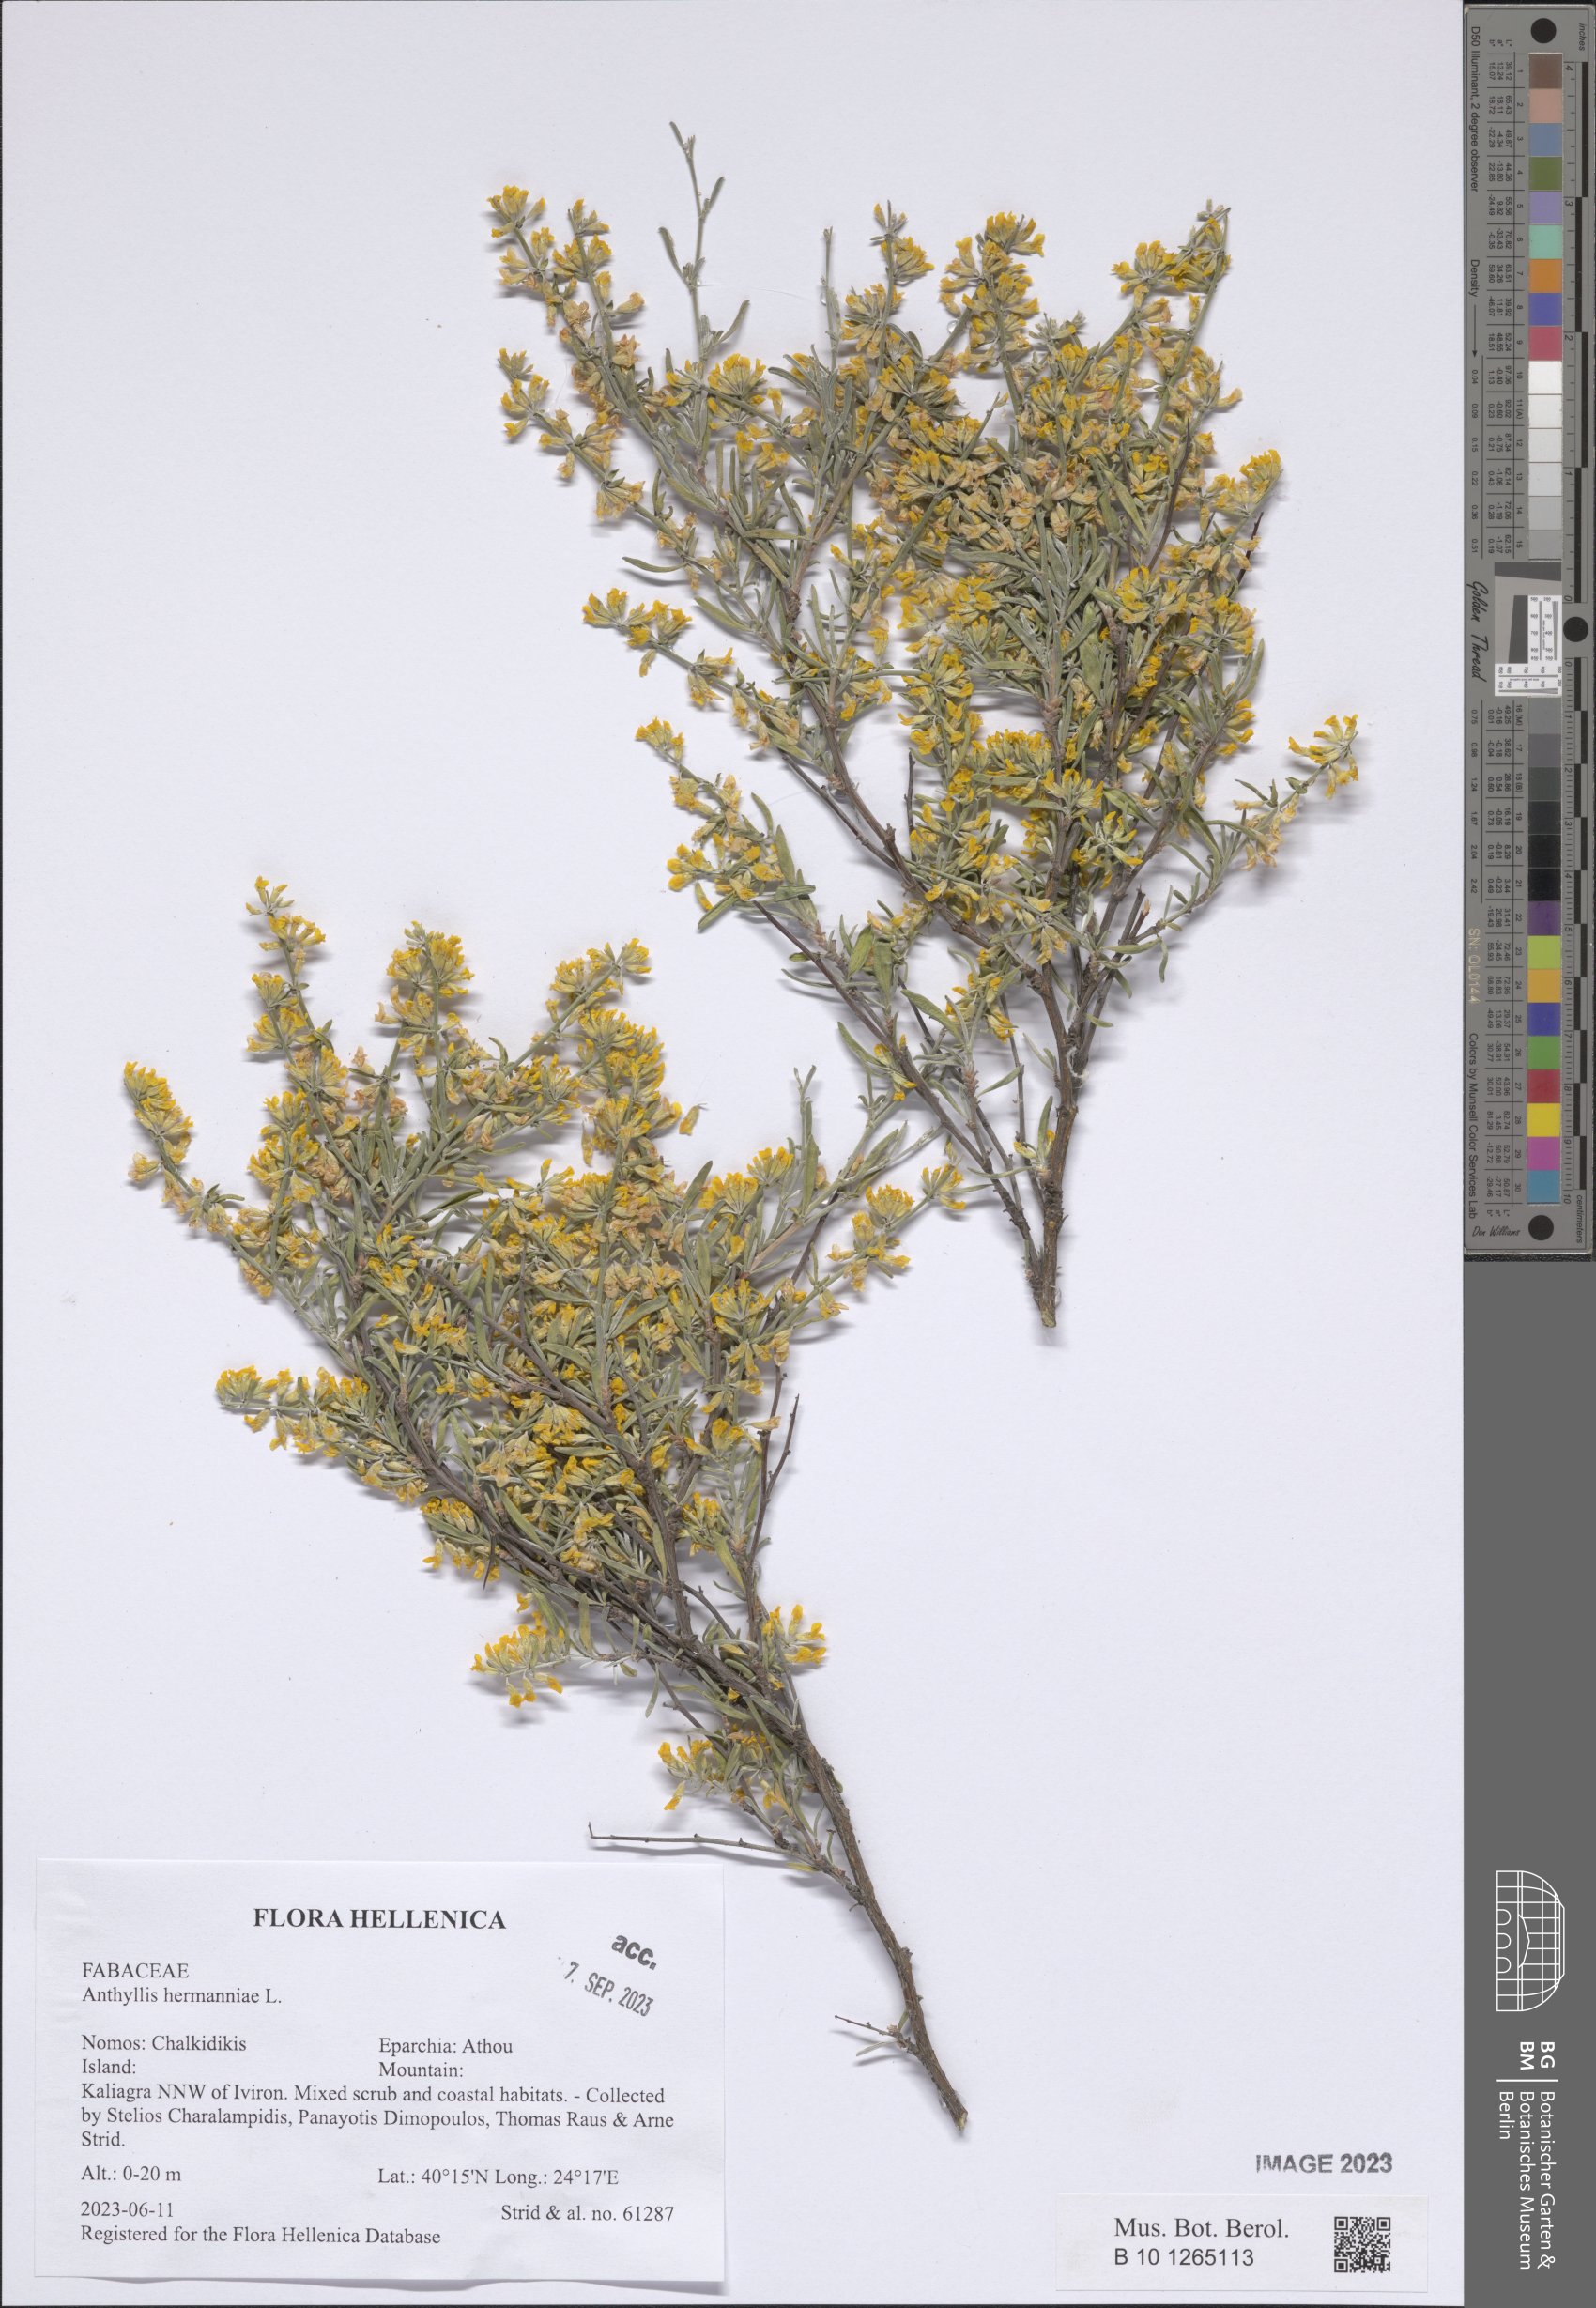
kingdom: Plantae
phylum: Tracheophyta
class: Magnoliopsida
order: Fabales
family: Fabaceae
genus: Anthyllis
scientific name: Anthyllis hermanniae
